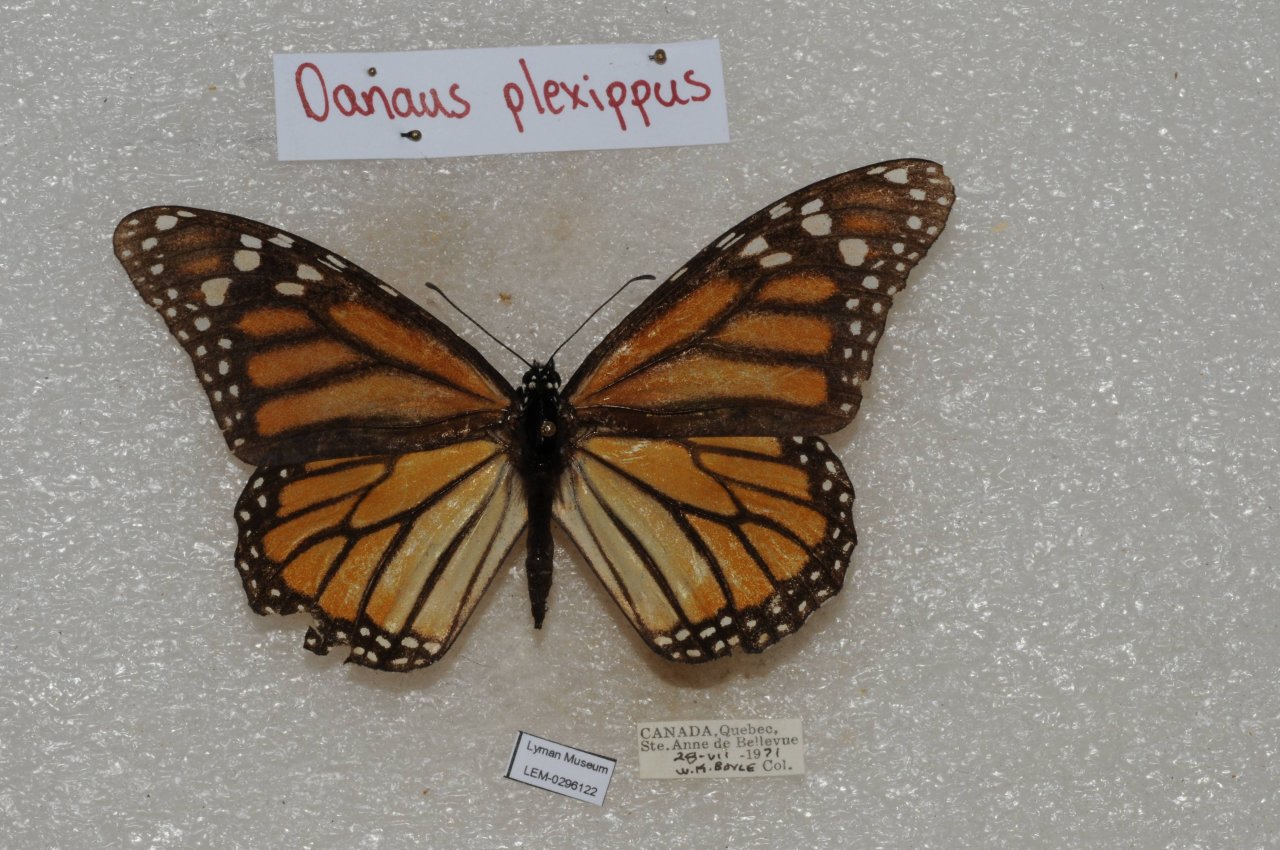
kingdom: Animalia
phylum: Arthropoda
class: Insecta
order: Lepidoptera
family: Nymphalidae
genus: Danaus
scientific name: Danaus plexippus
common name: Monarch
